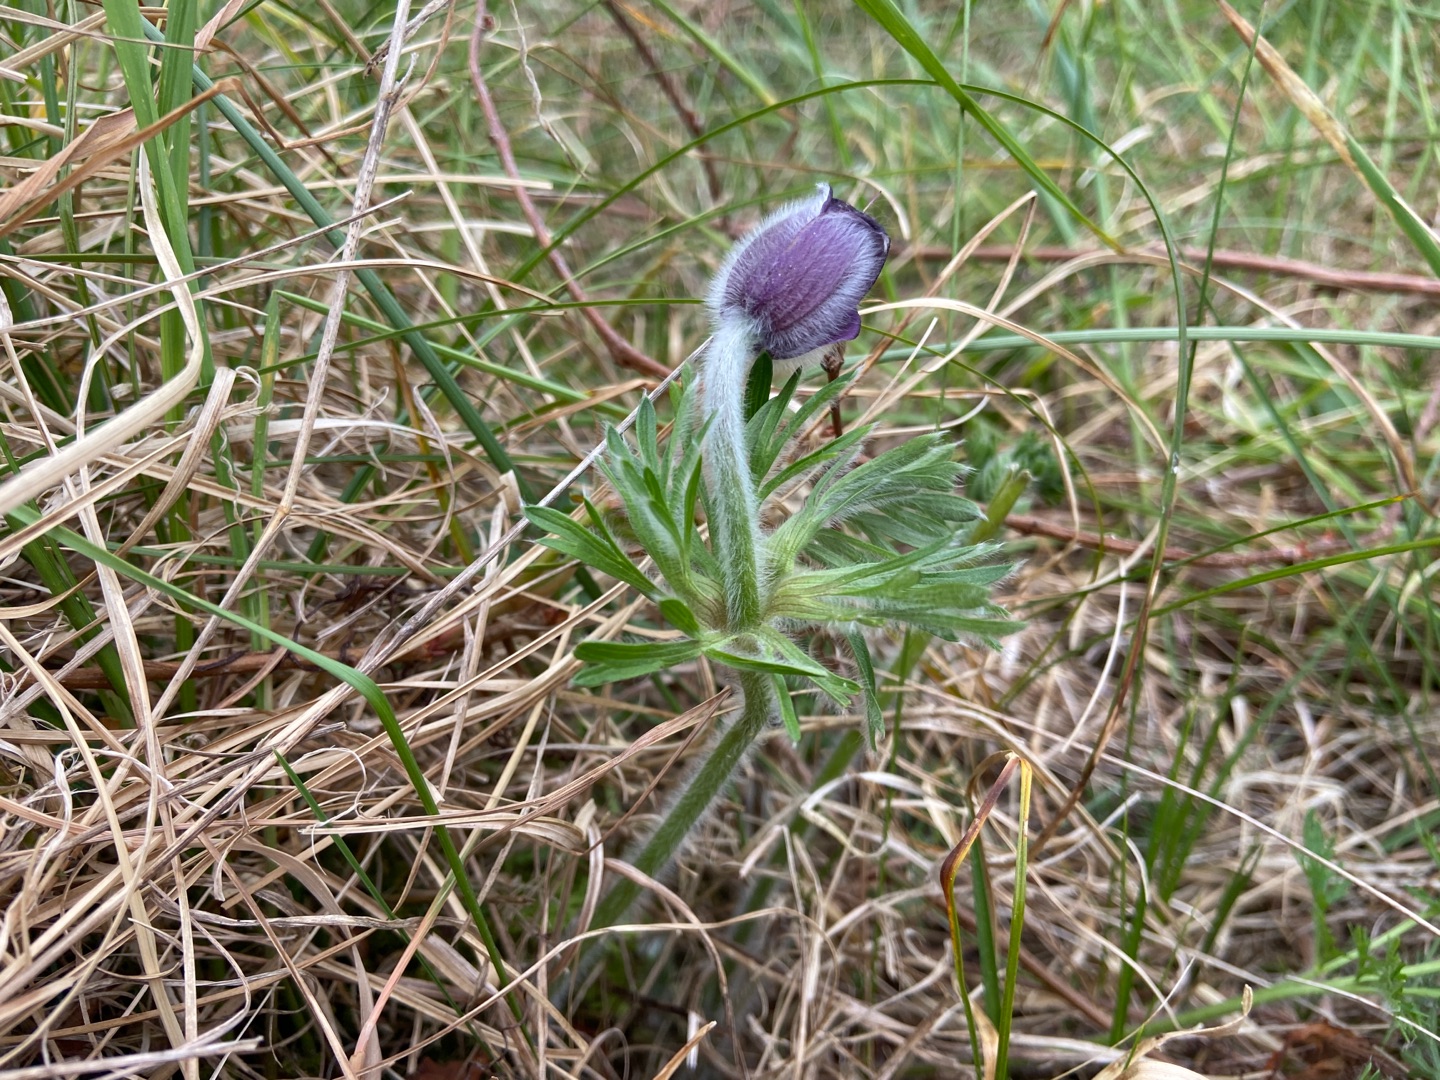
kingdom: Plantae
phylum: Tracheophyta
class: Magnoliopsida
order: Ranunculales
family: Ranunculaceae
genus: Pulsatilla
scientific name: Pulsatilla pratensis
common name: Nikkende kobjælde
